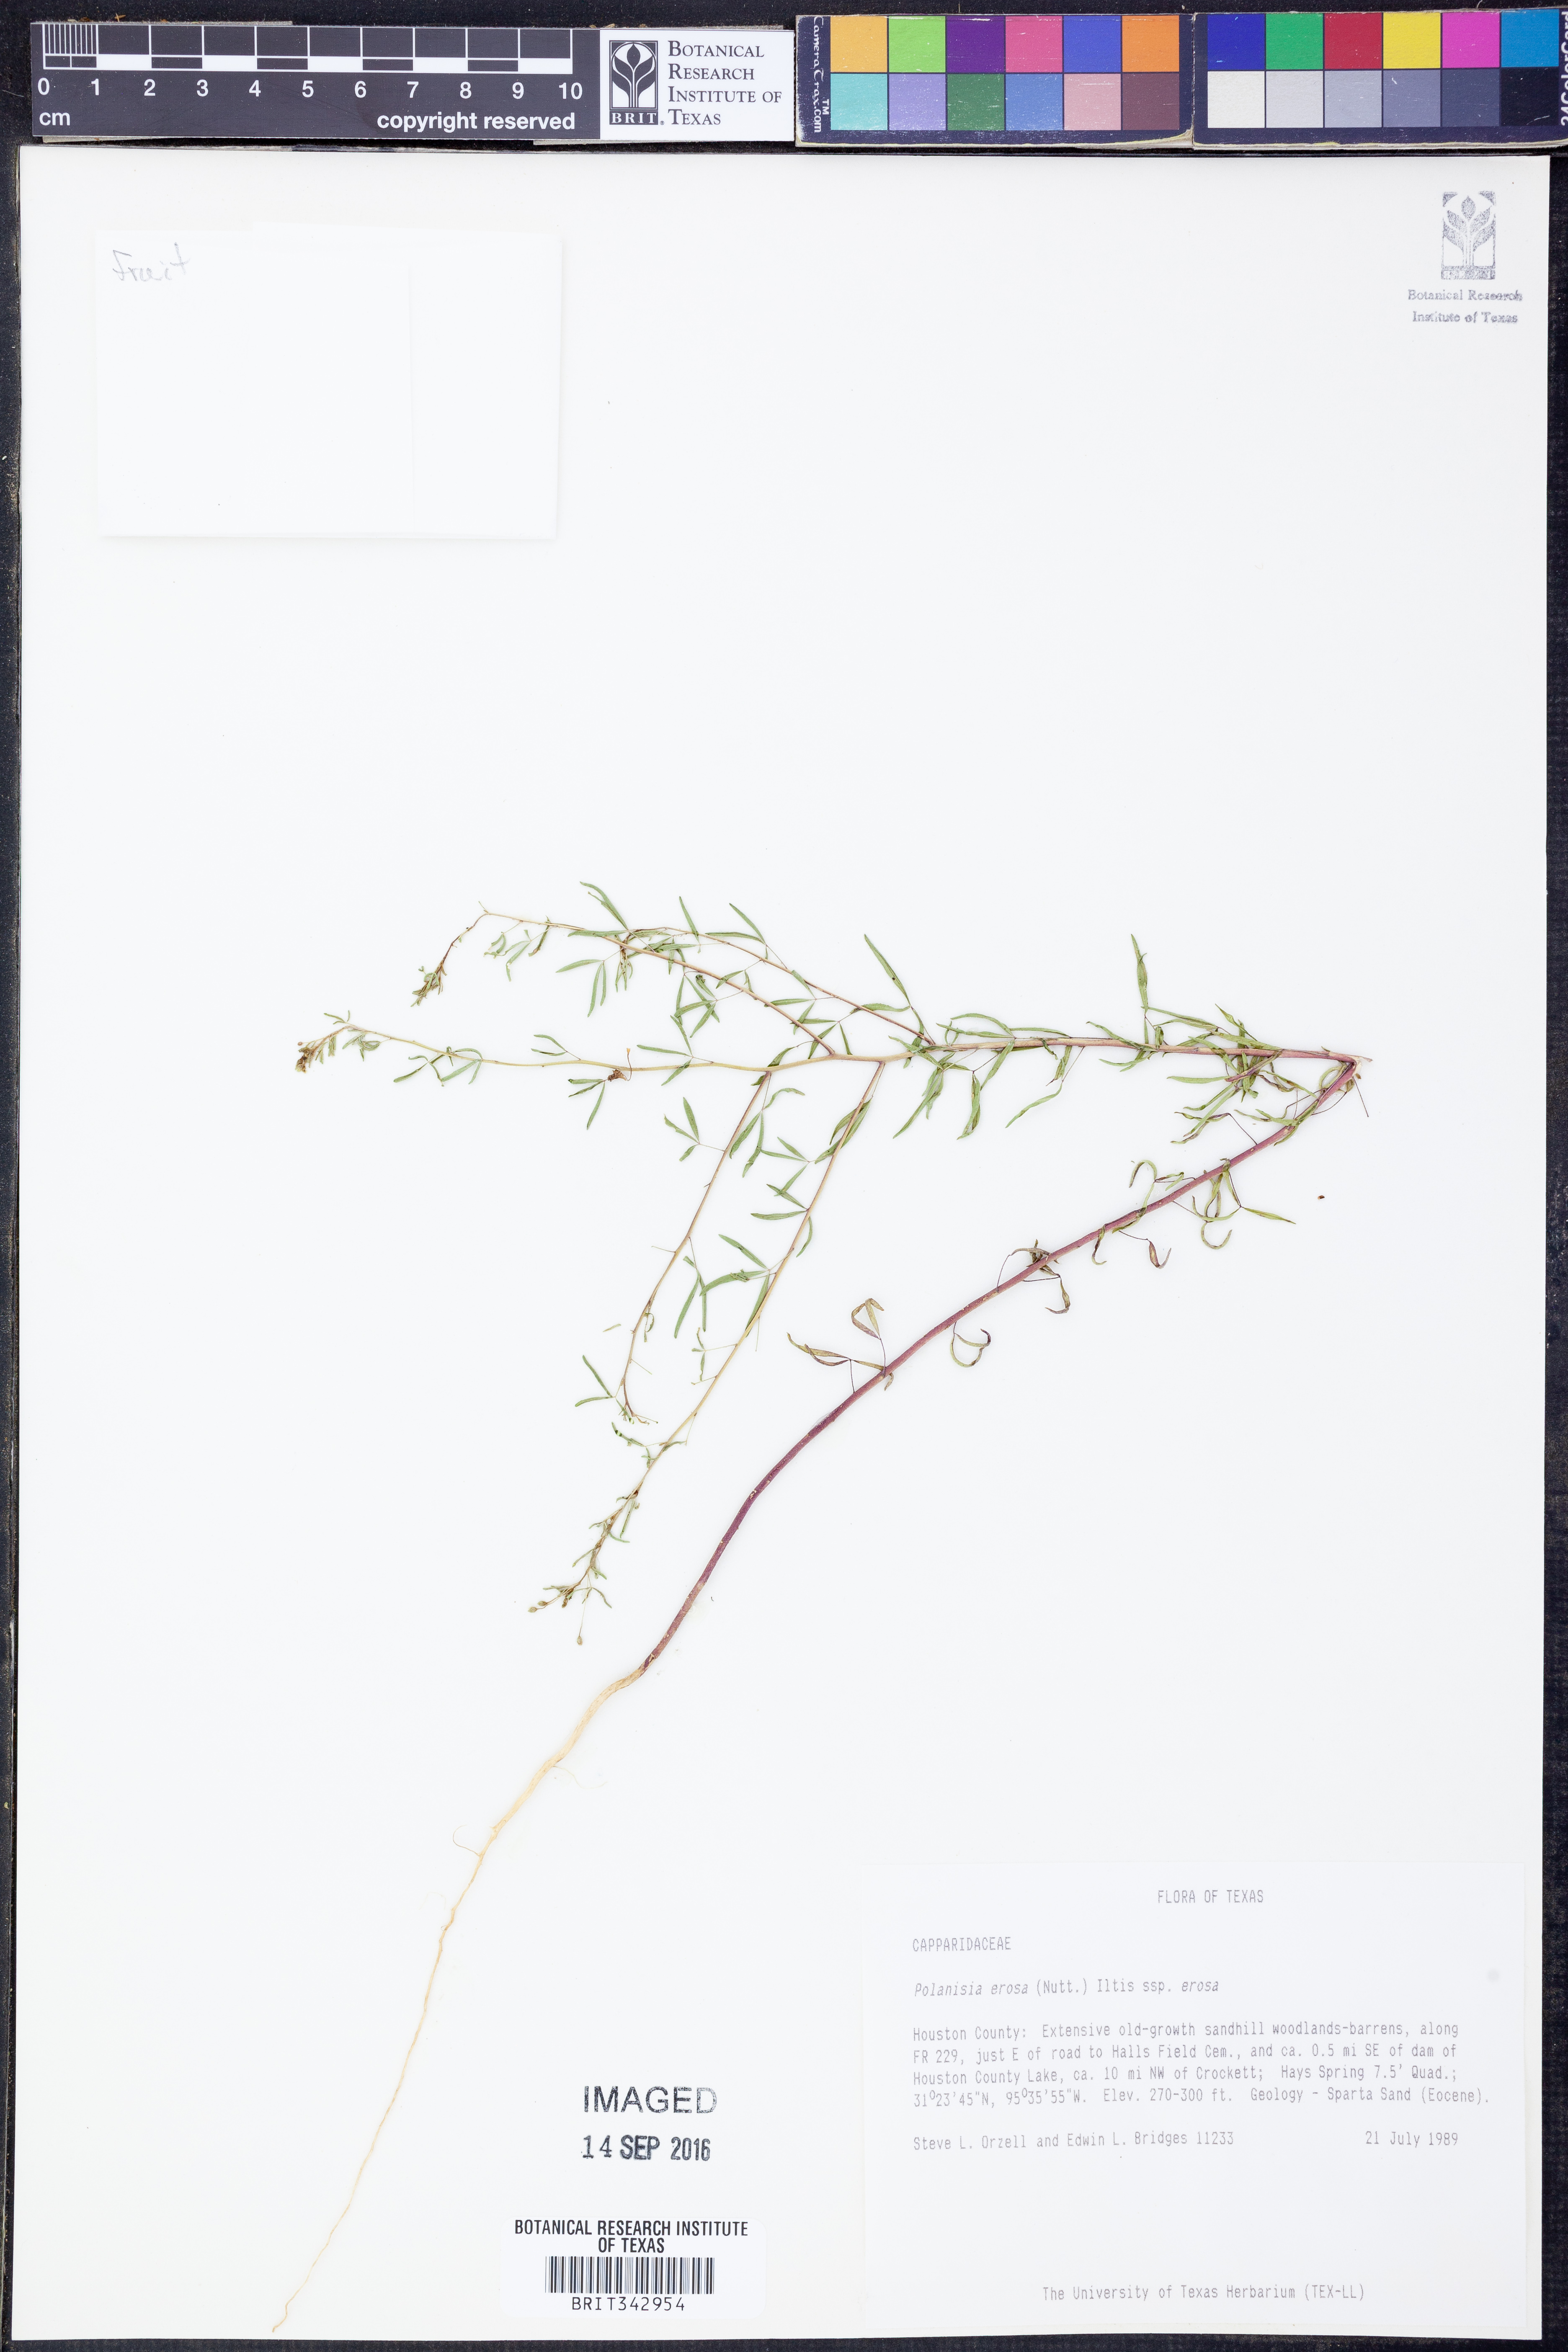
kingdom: Plantae
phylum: Tracheophyta
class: Magnoliopsida
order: Brassicales
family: Cleomaceae
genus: Polanisia
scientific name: Polanisia erosa
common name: Large clammyweed
